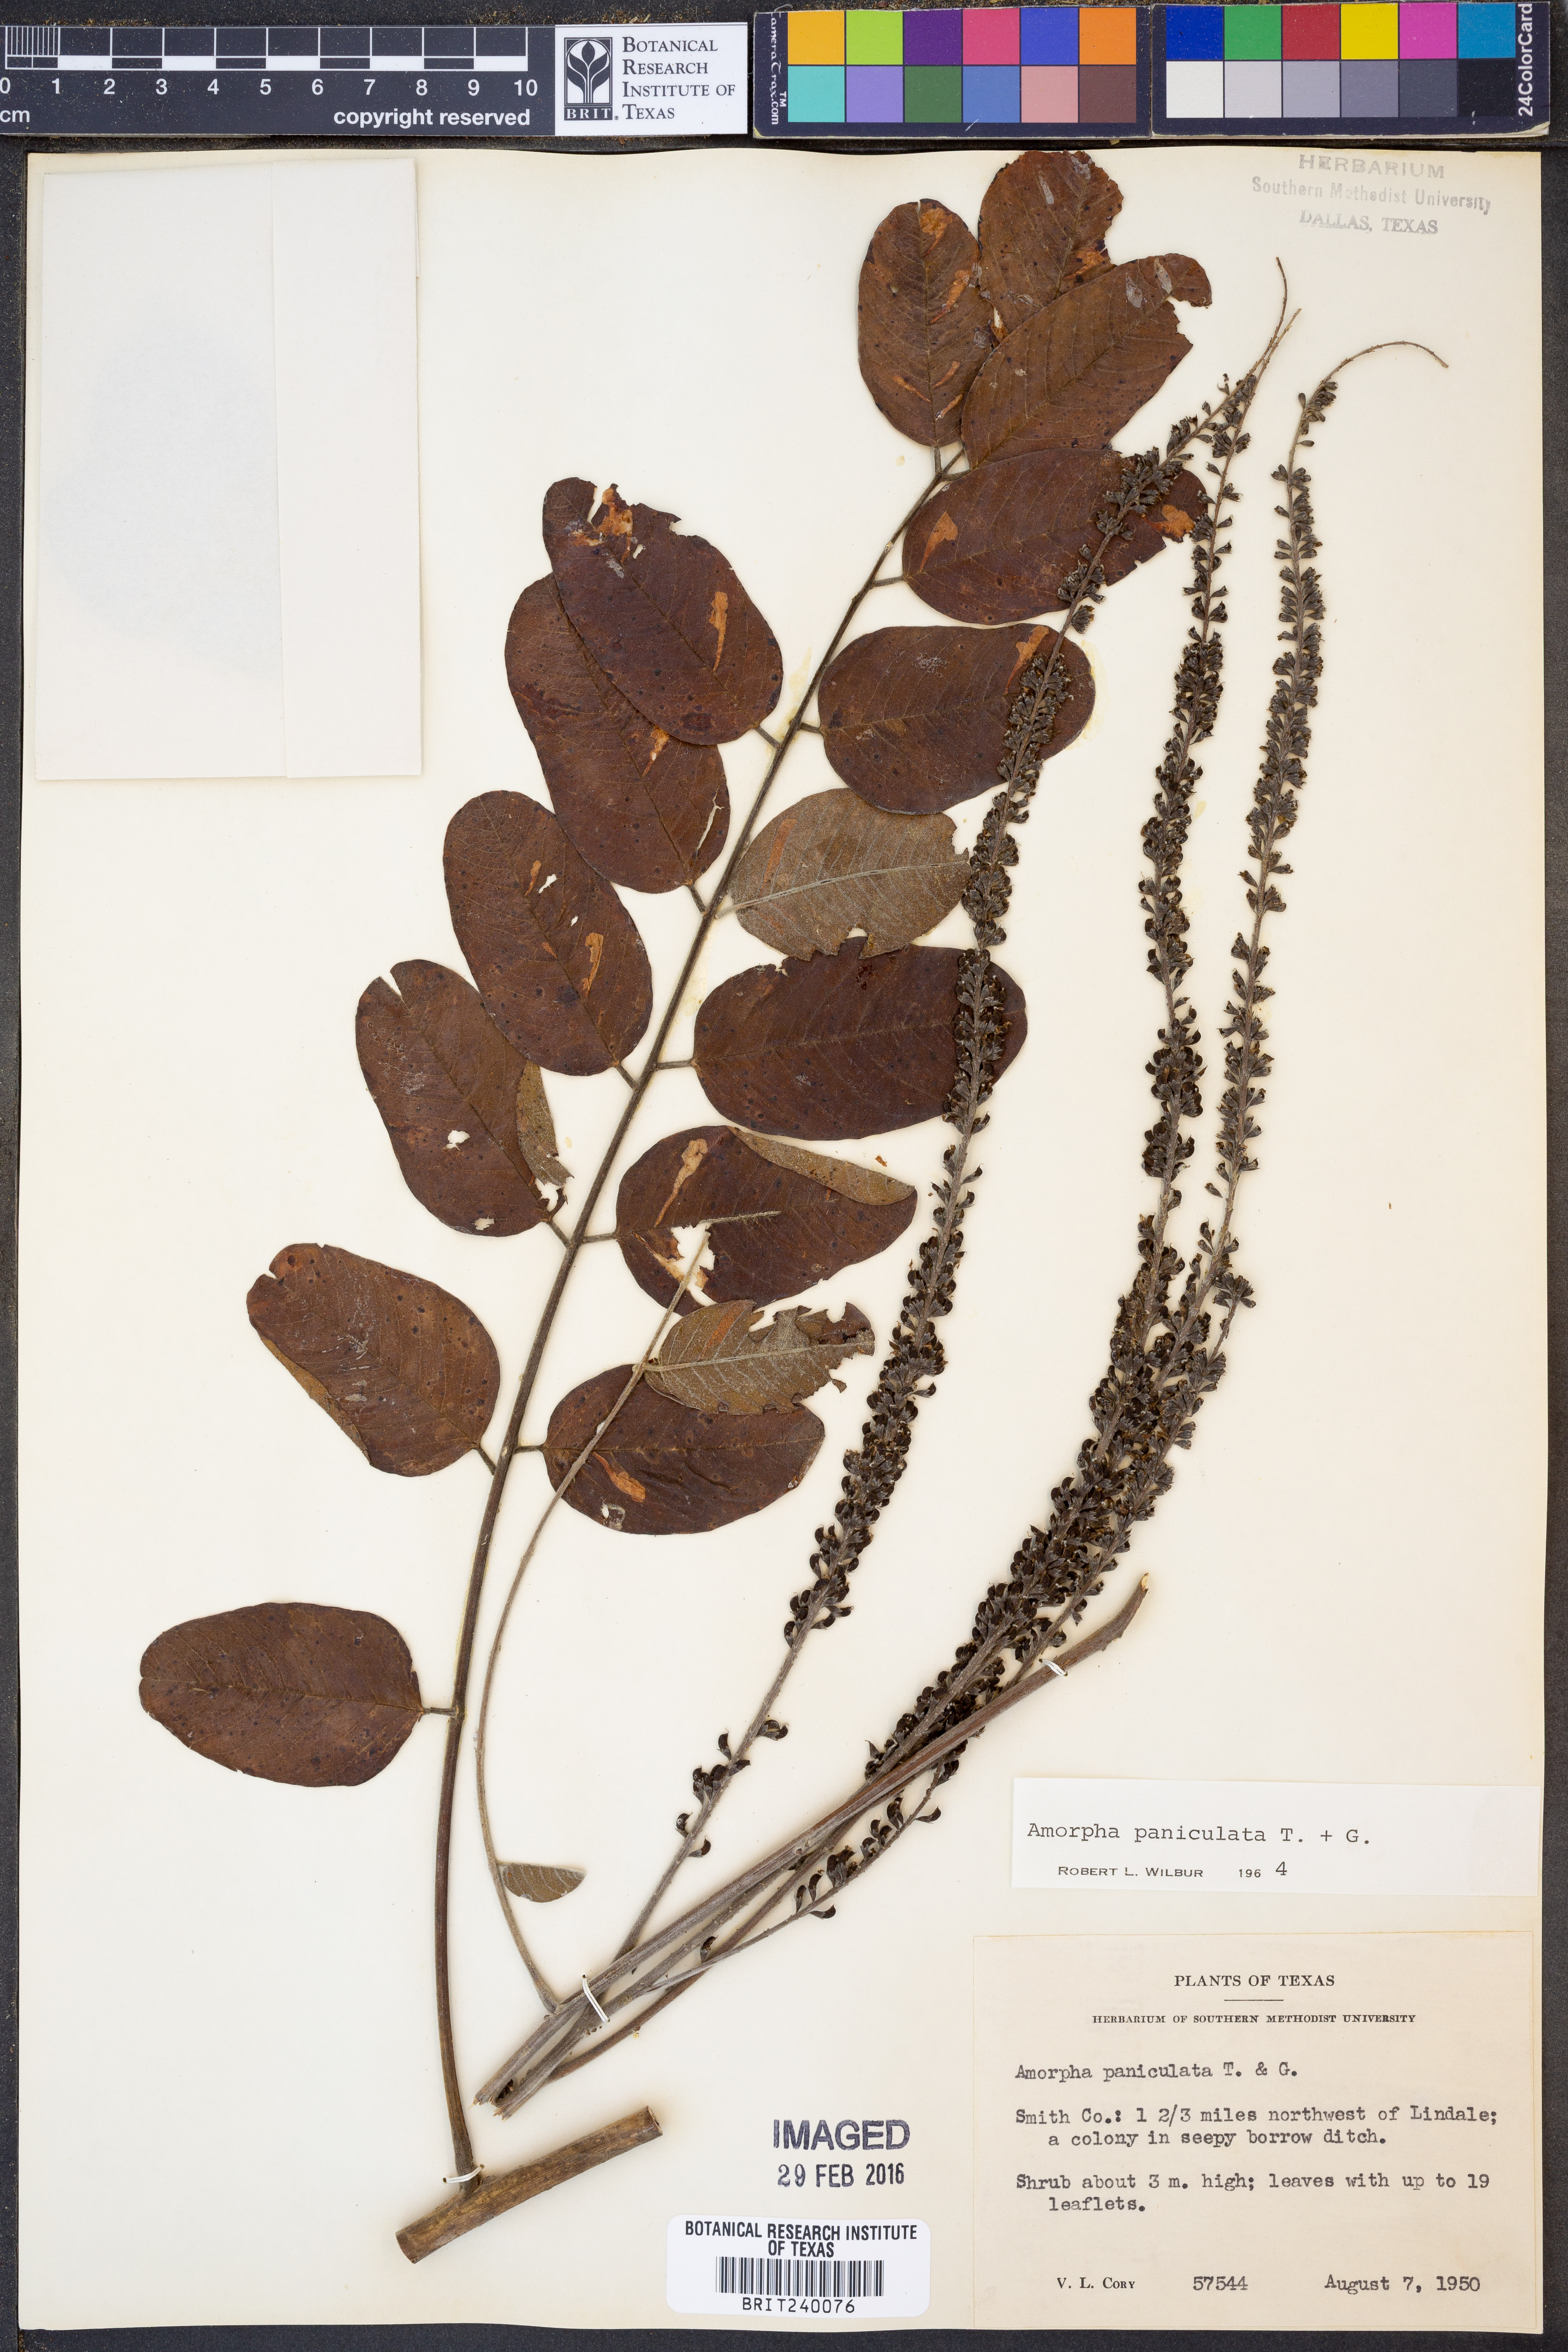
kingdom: Plantae
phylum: Tracheophyta
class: Magnoliopsida
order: Fabales
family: Fabaceae
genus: Amorpha
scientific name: Amorpha paniculata
